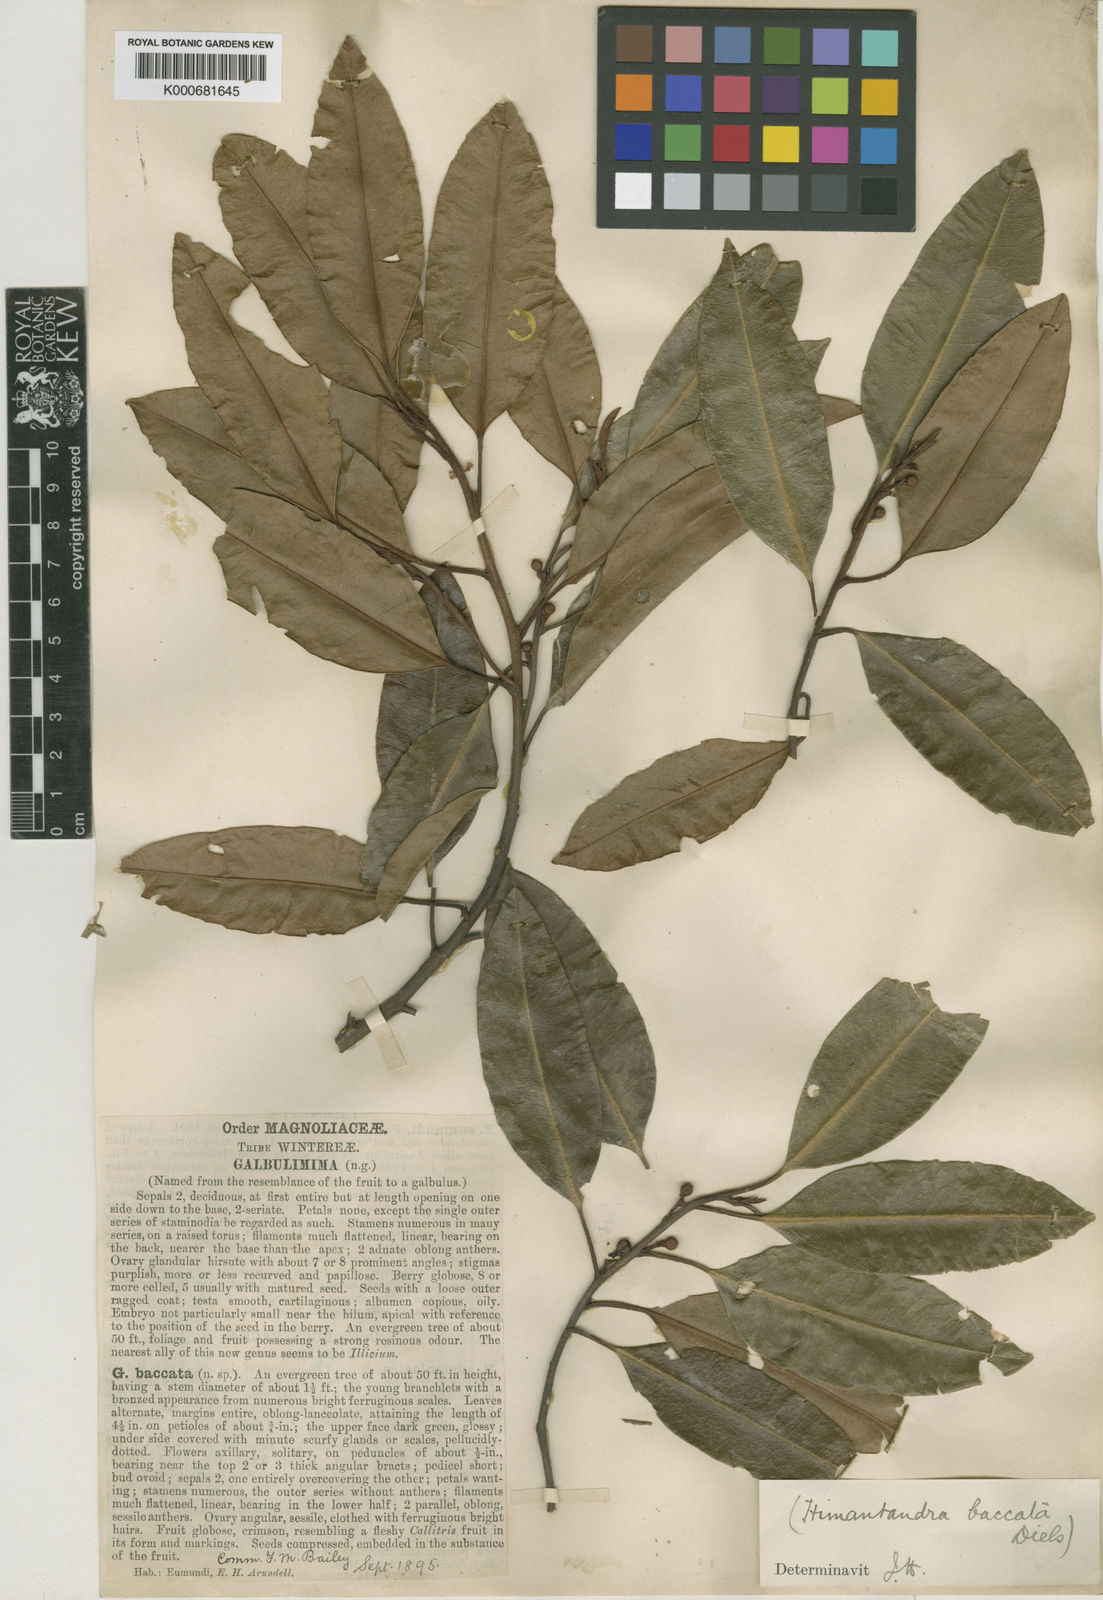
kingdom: Plantae
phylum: Tracheophyta
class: Magnoliopsida
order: Magnoliales
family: Himantandraceae
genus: Galbulimima
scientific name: Galbulimima belgraveana
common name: Northern pigeonberry-ash
